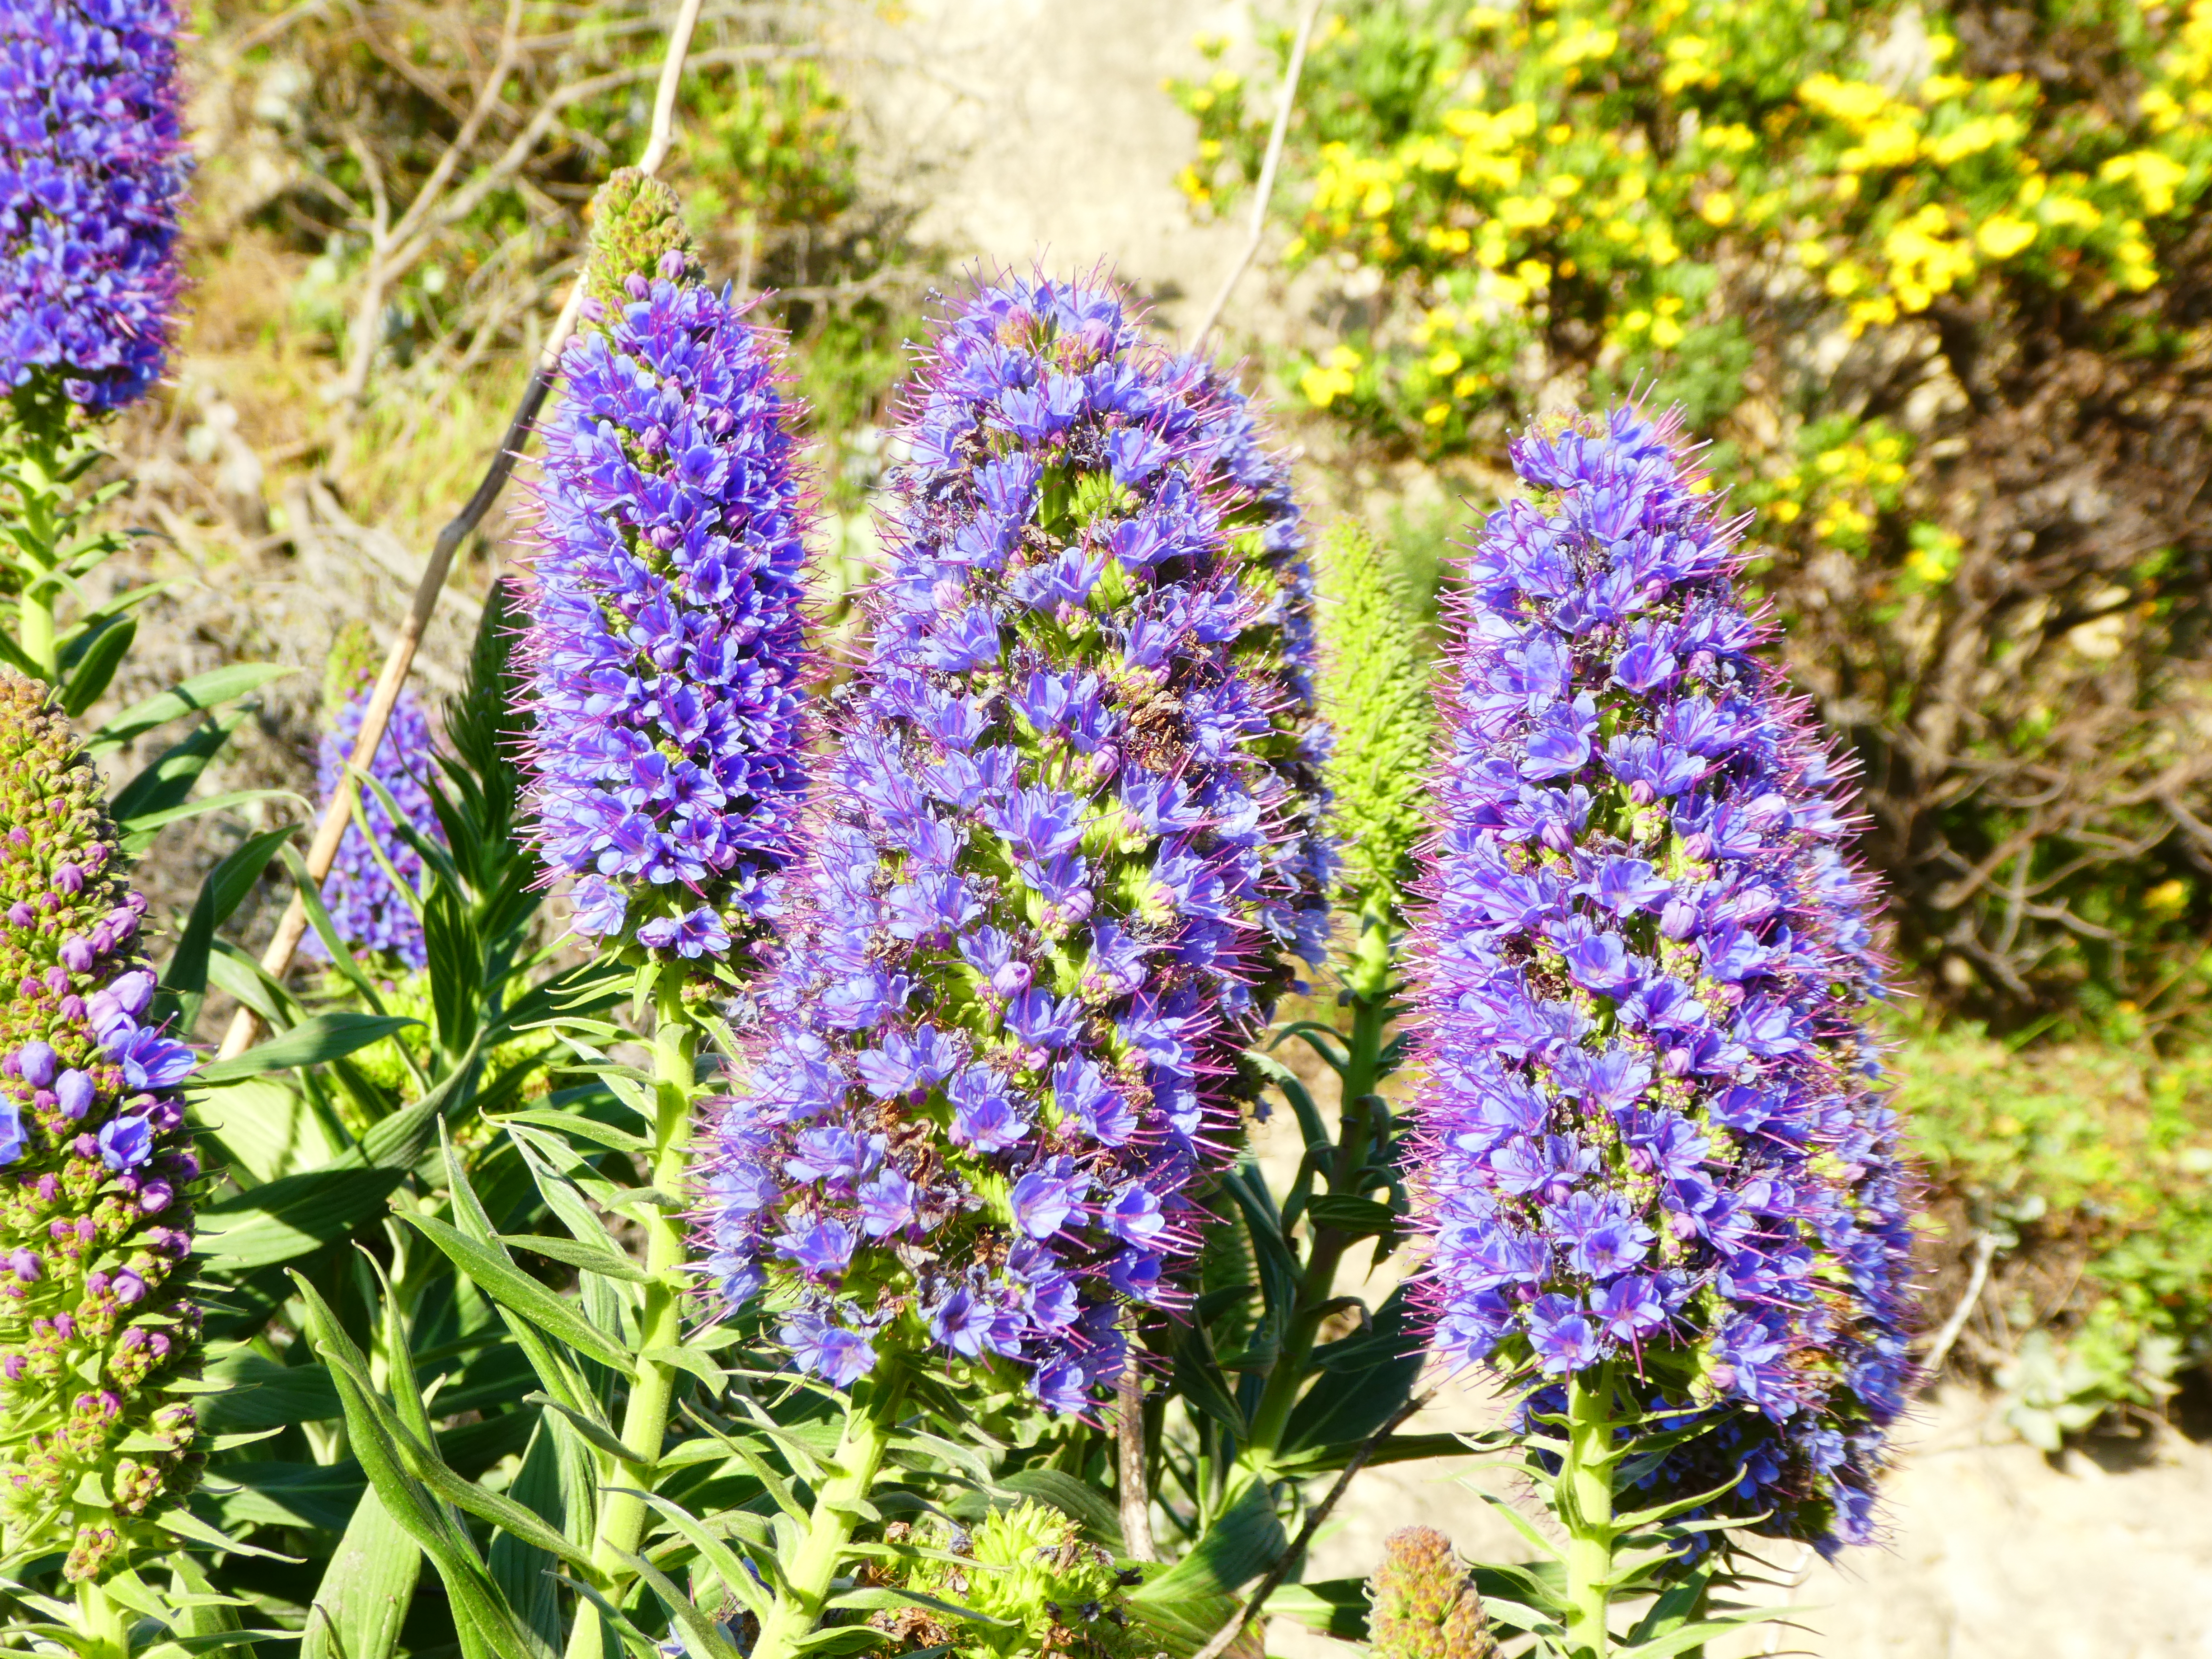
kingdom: Plantae
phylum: Tracheophyta
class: Magnoliopsida
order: Boraginales
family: Boraginaceae
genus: Echium
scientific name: Echium candicans
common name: Pride of madeira
